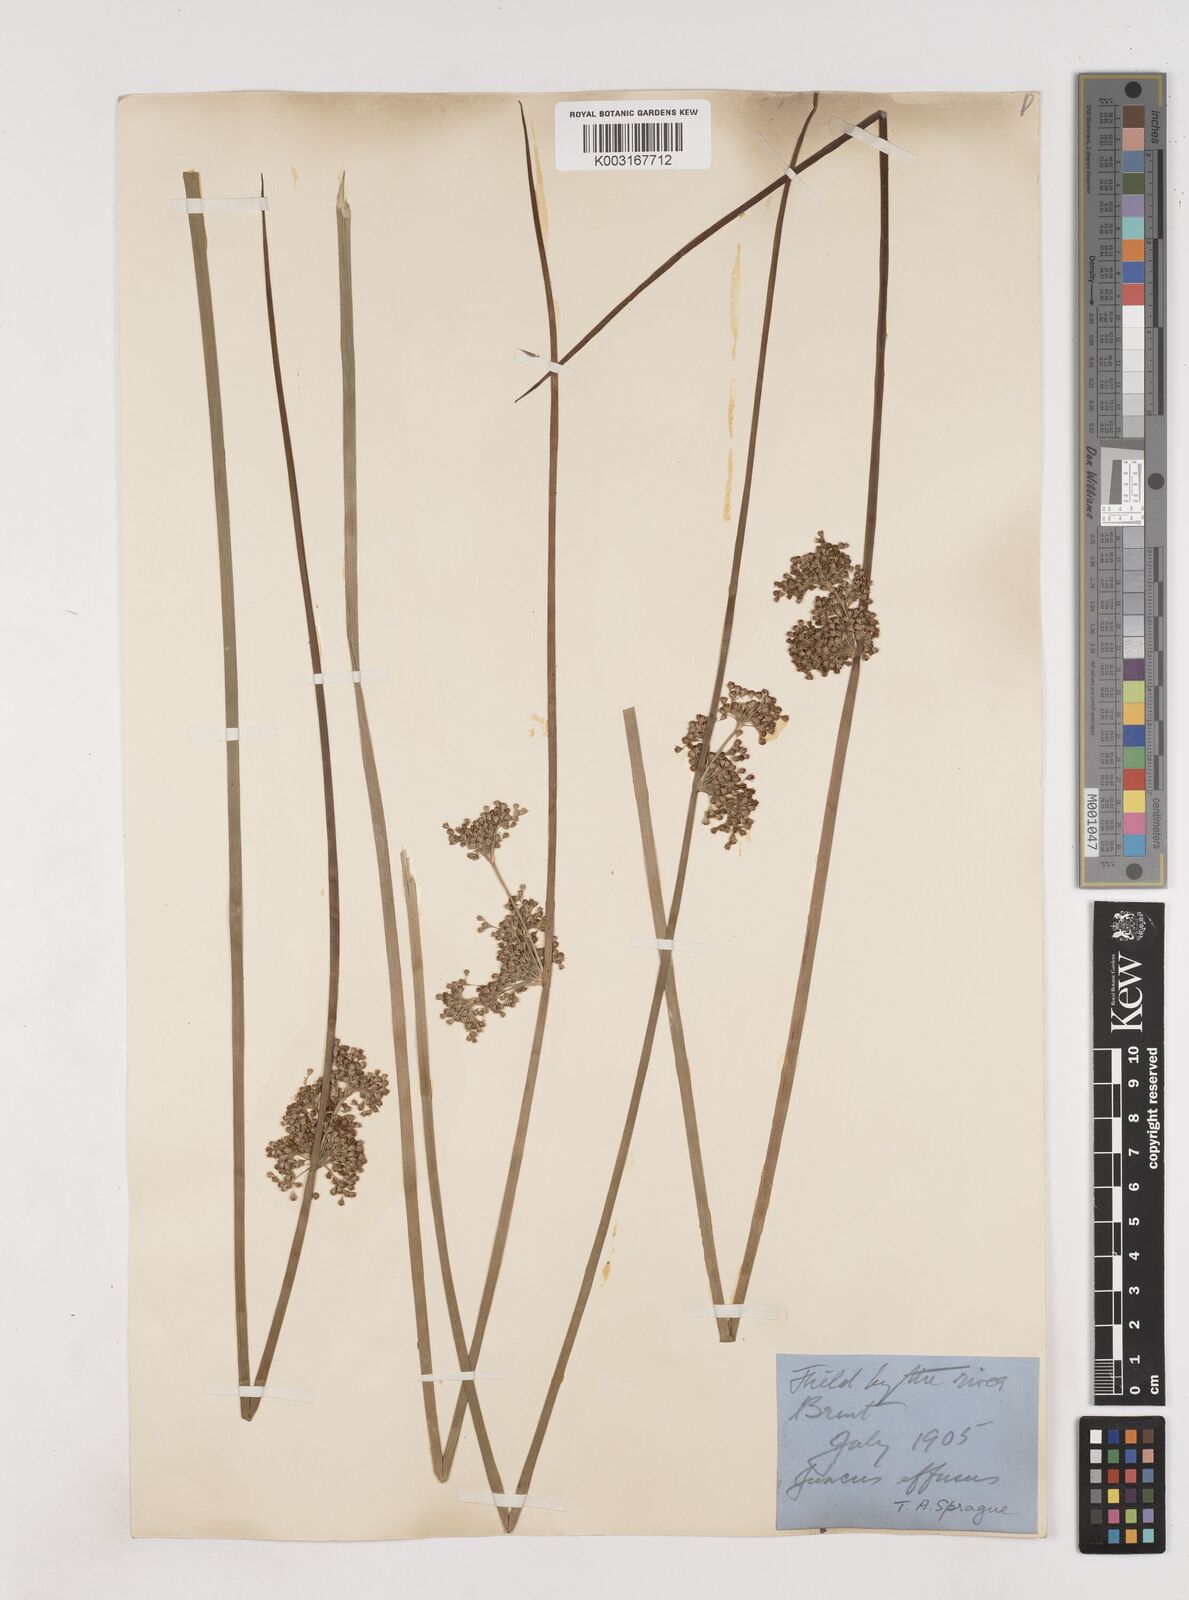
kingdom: Plantae
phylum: Tracheophyta
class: Liliopsida
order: Poales
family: Juncaceae
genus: Juncus
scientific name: Juncus effusus
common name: Soft rush
